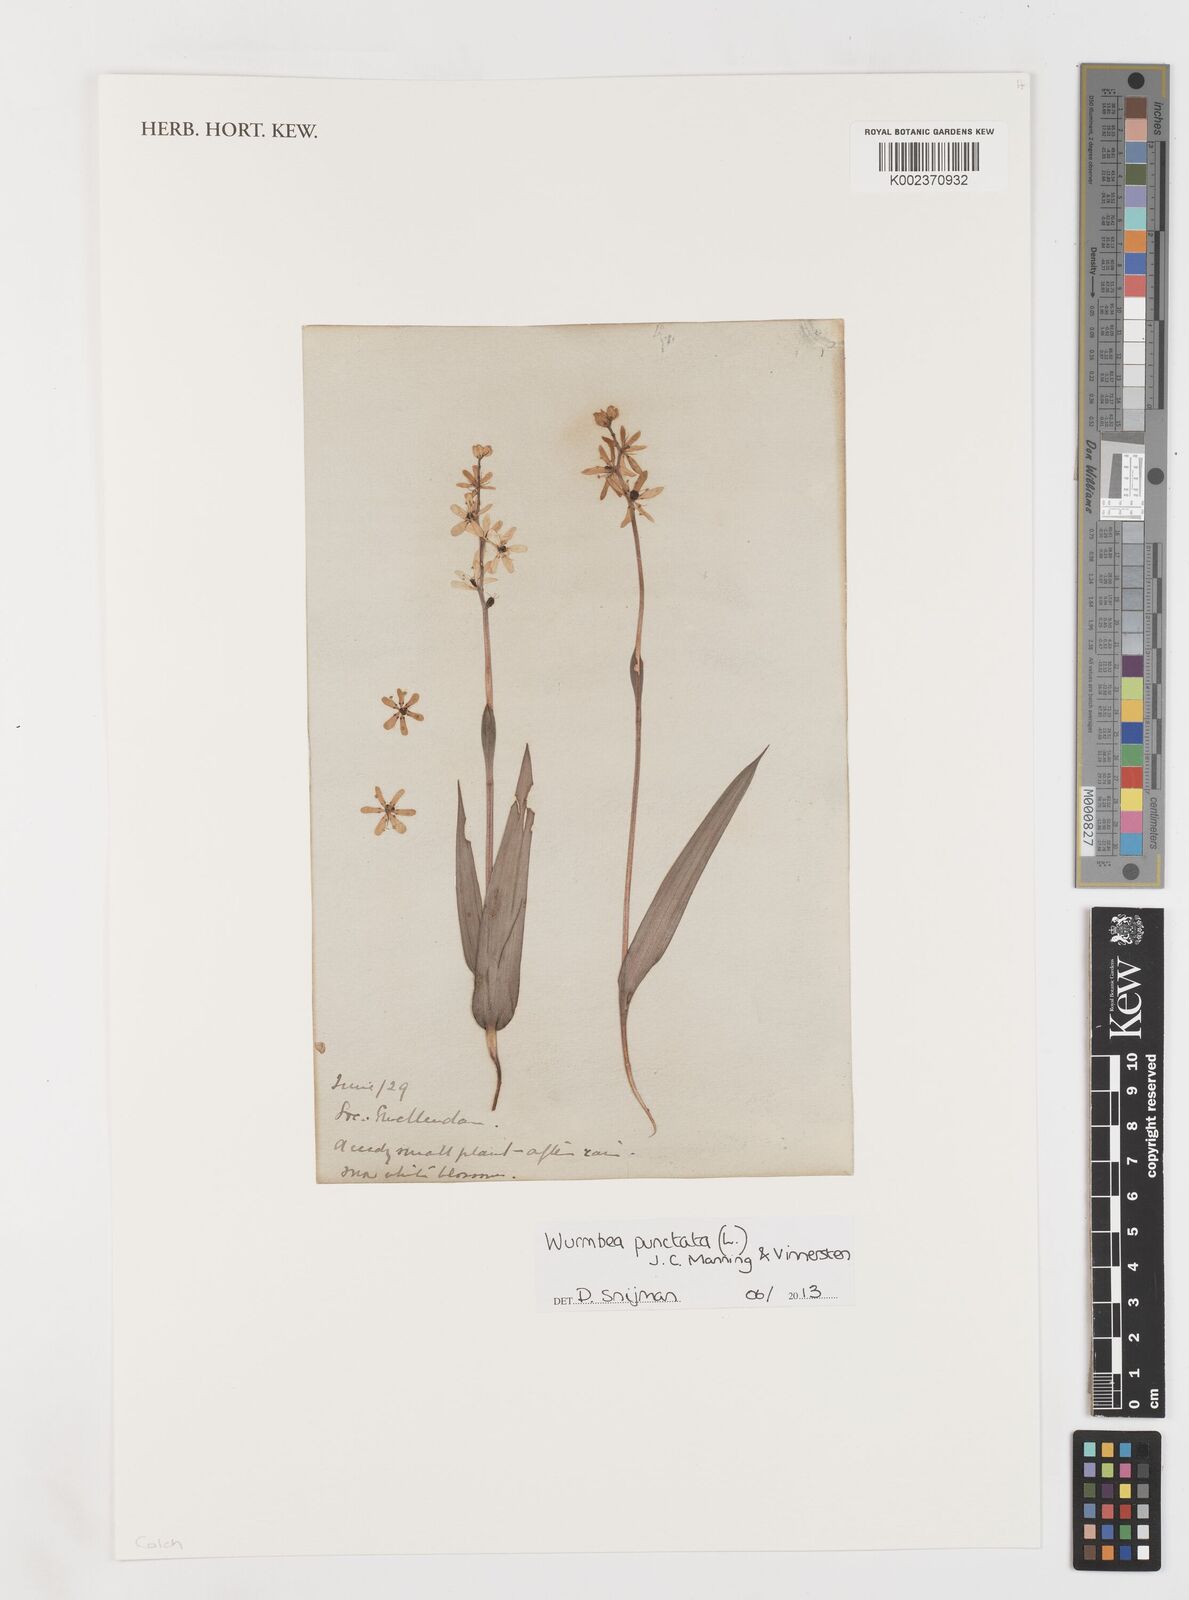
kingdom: Plantae
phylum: Tracheophyta
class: Liliopsida
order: Liliales
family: Colchicaceae
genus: Wurmbea
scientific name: Wurmbea punctata
